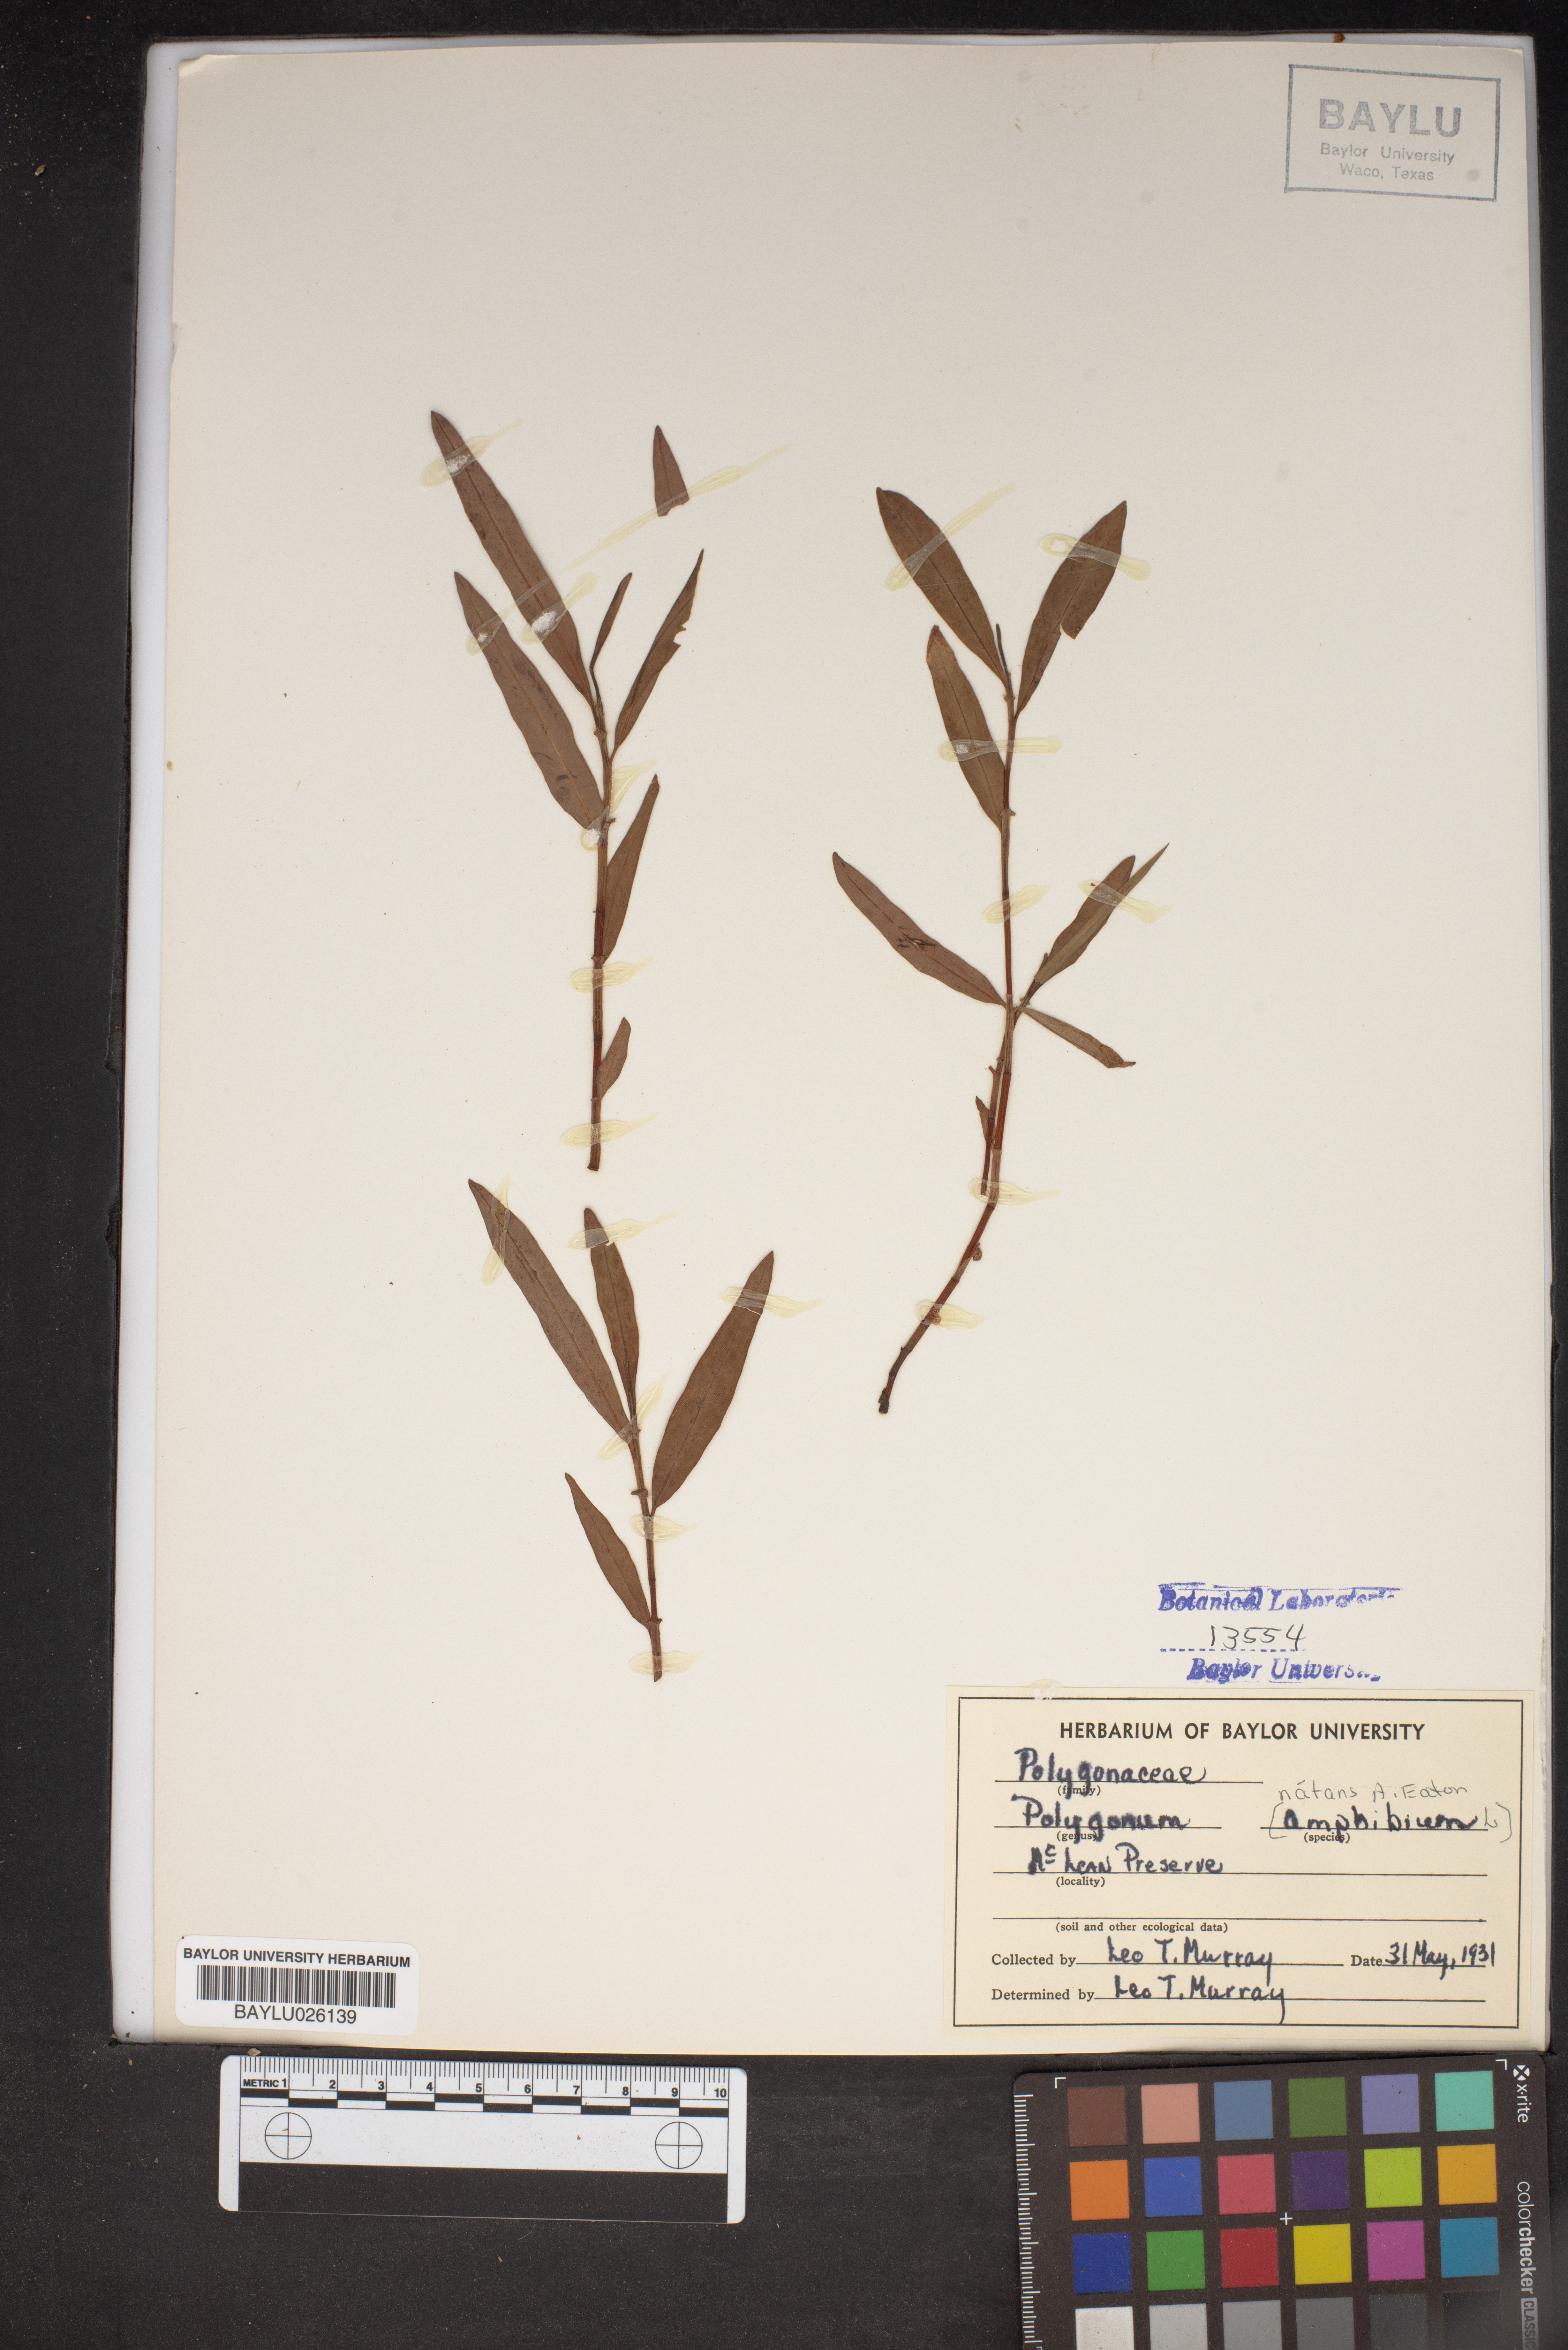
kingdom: Plantae
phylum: Tracheophyta
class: Magnoliopsida
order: Caryophyllales
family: Polygonaceae
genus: Persicaria
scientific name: Persicaria amphibia
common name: Amphibious bistort
